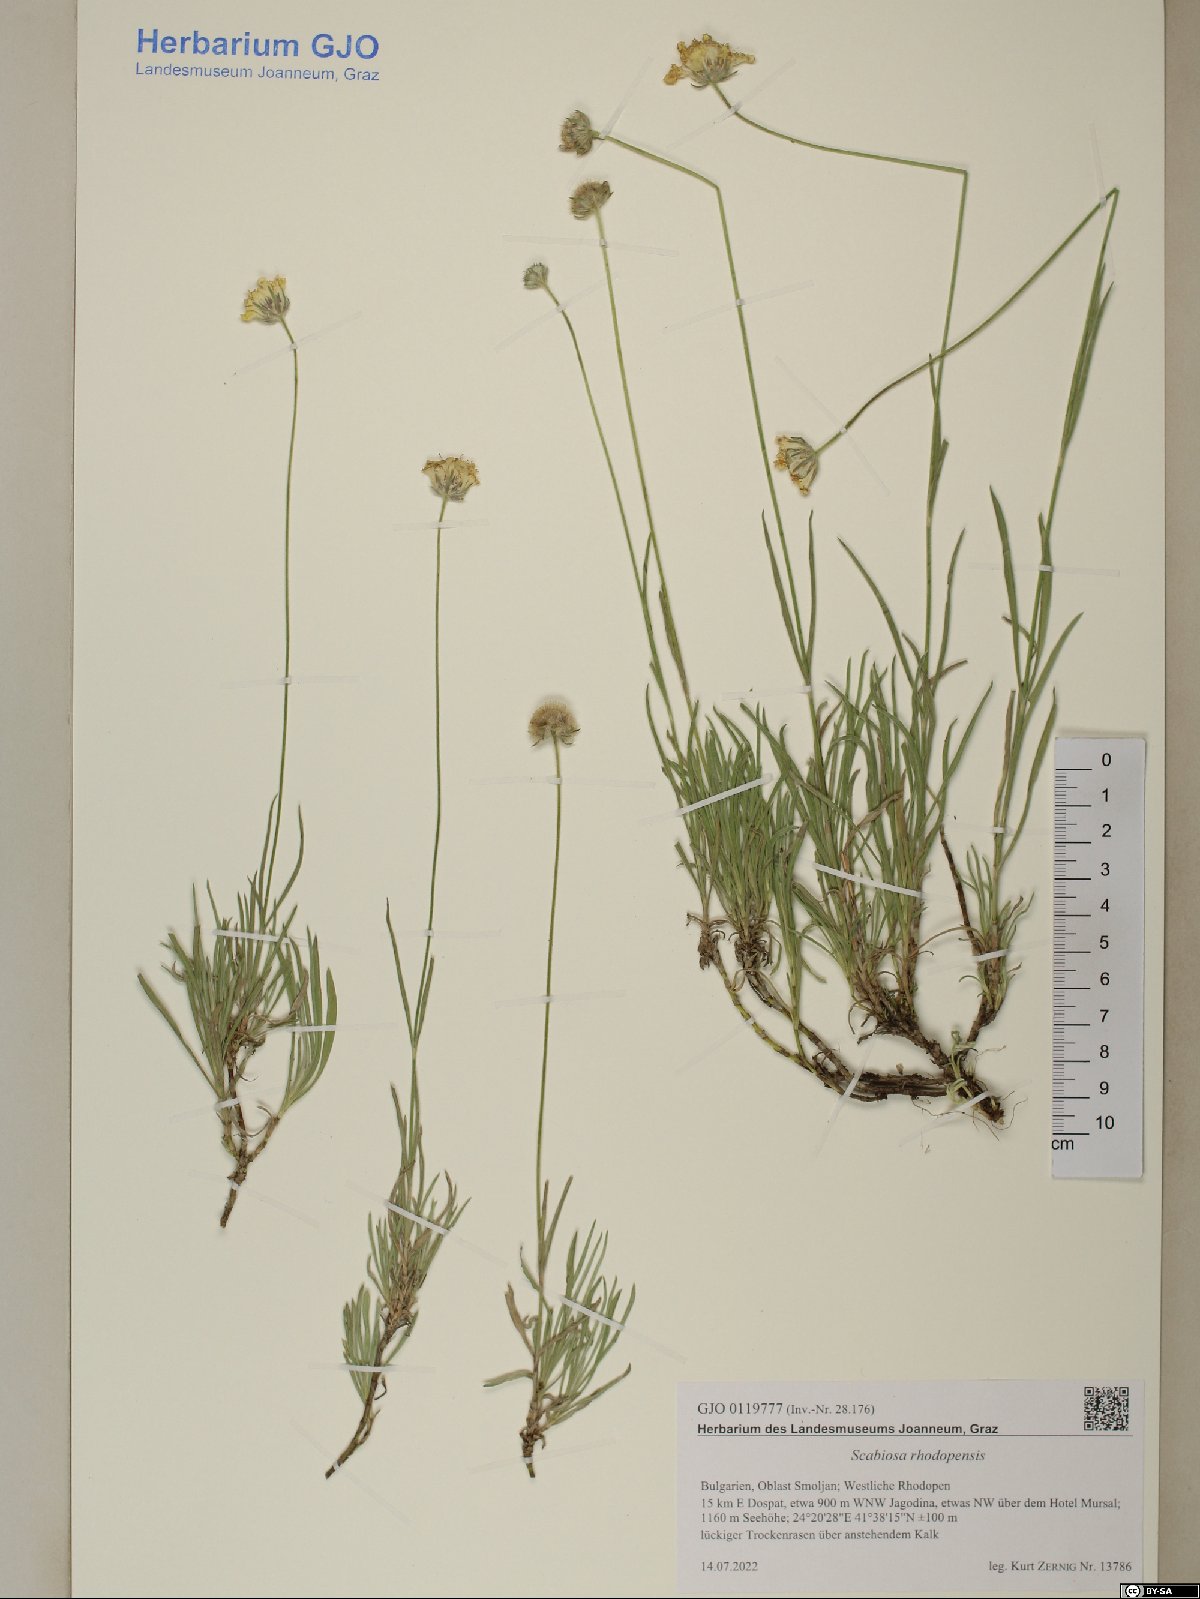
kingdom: Plantae
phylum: Tracheophyta
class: Magnoliopsida
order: Dipsacales
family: Caprifoliaceae
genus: Lomelosia
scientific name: Lomelosia rhodopensis
